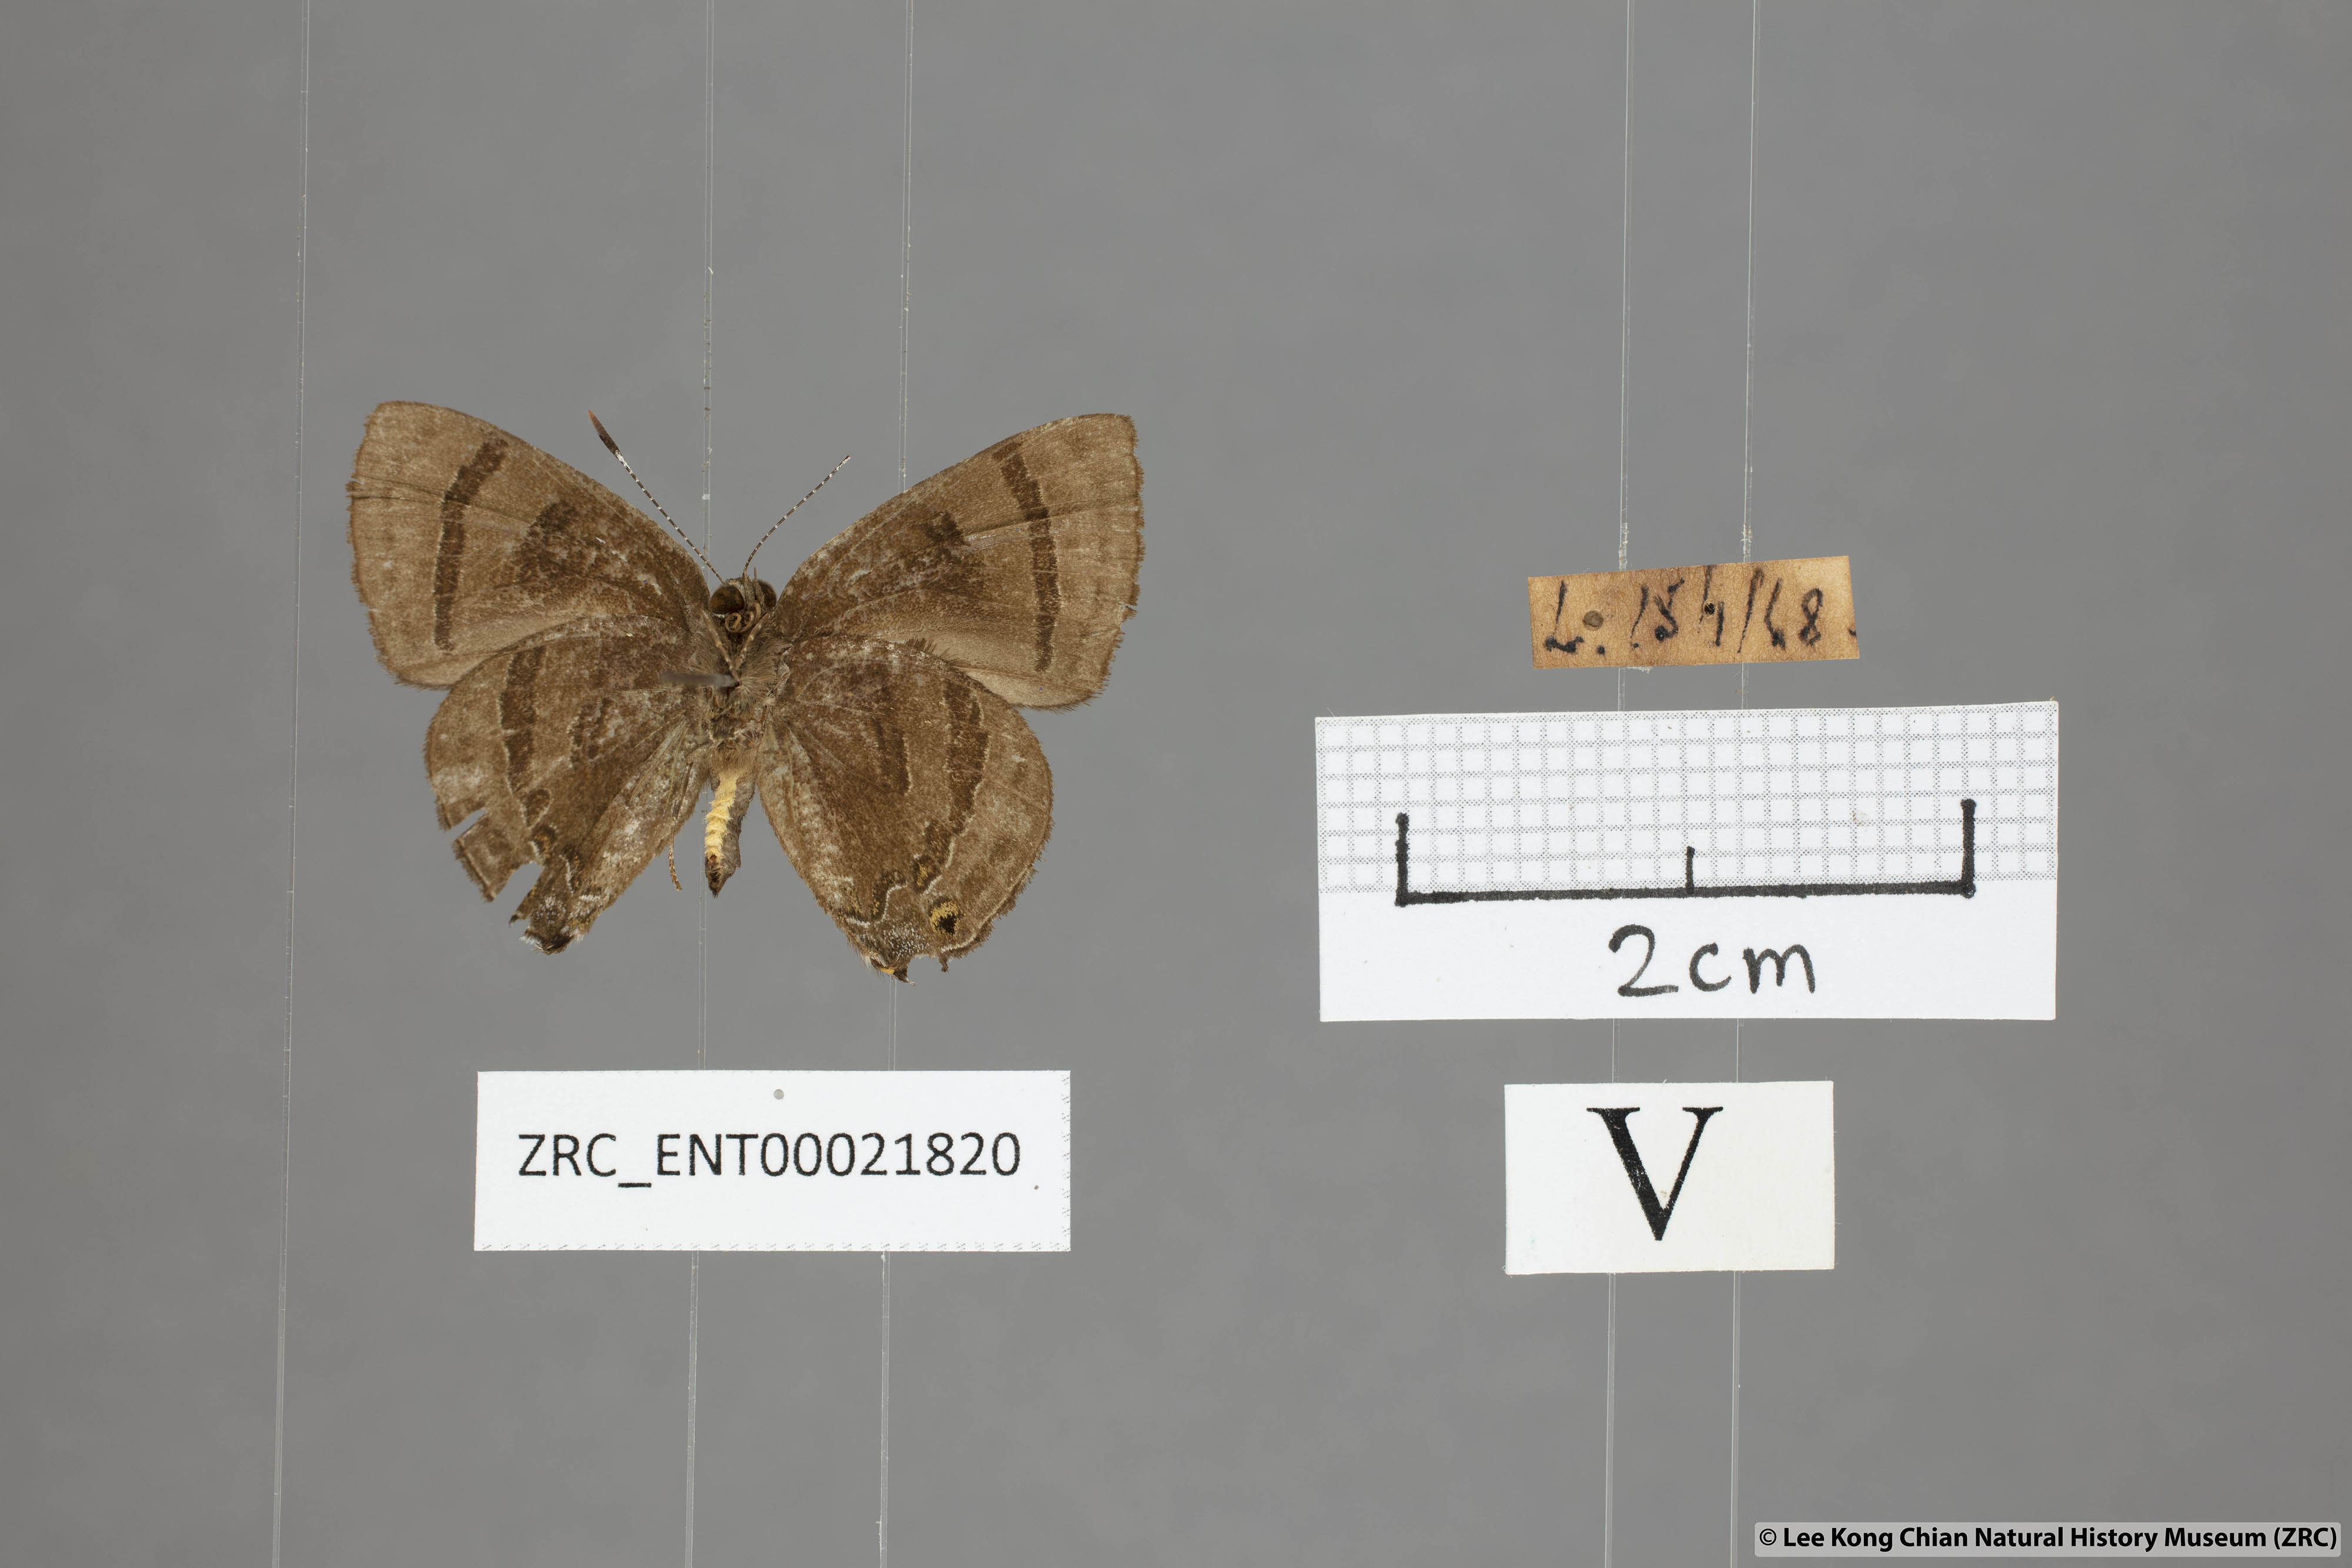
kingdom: Animalia
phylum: Arthropoda
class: Insecta
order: Lepidoptera
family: Lycaenidae
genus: Rapala
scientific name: Rapala rhoecus
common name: Brilliant flash
